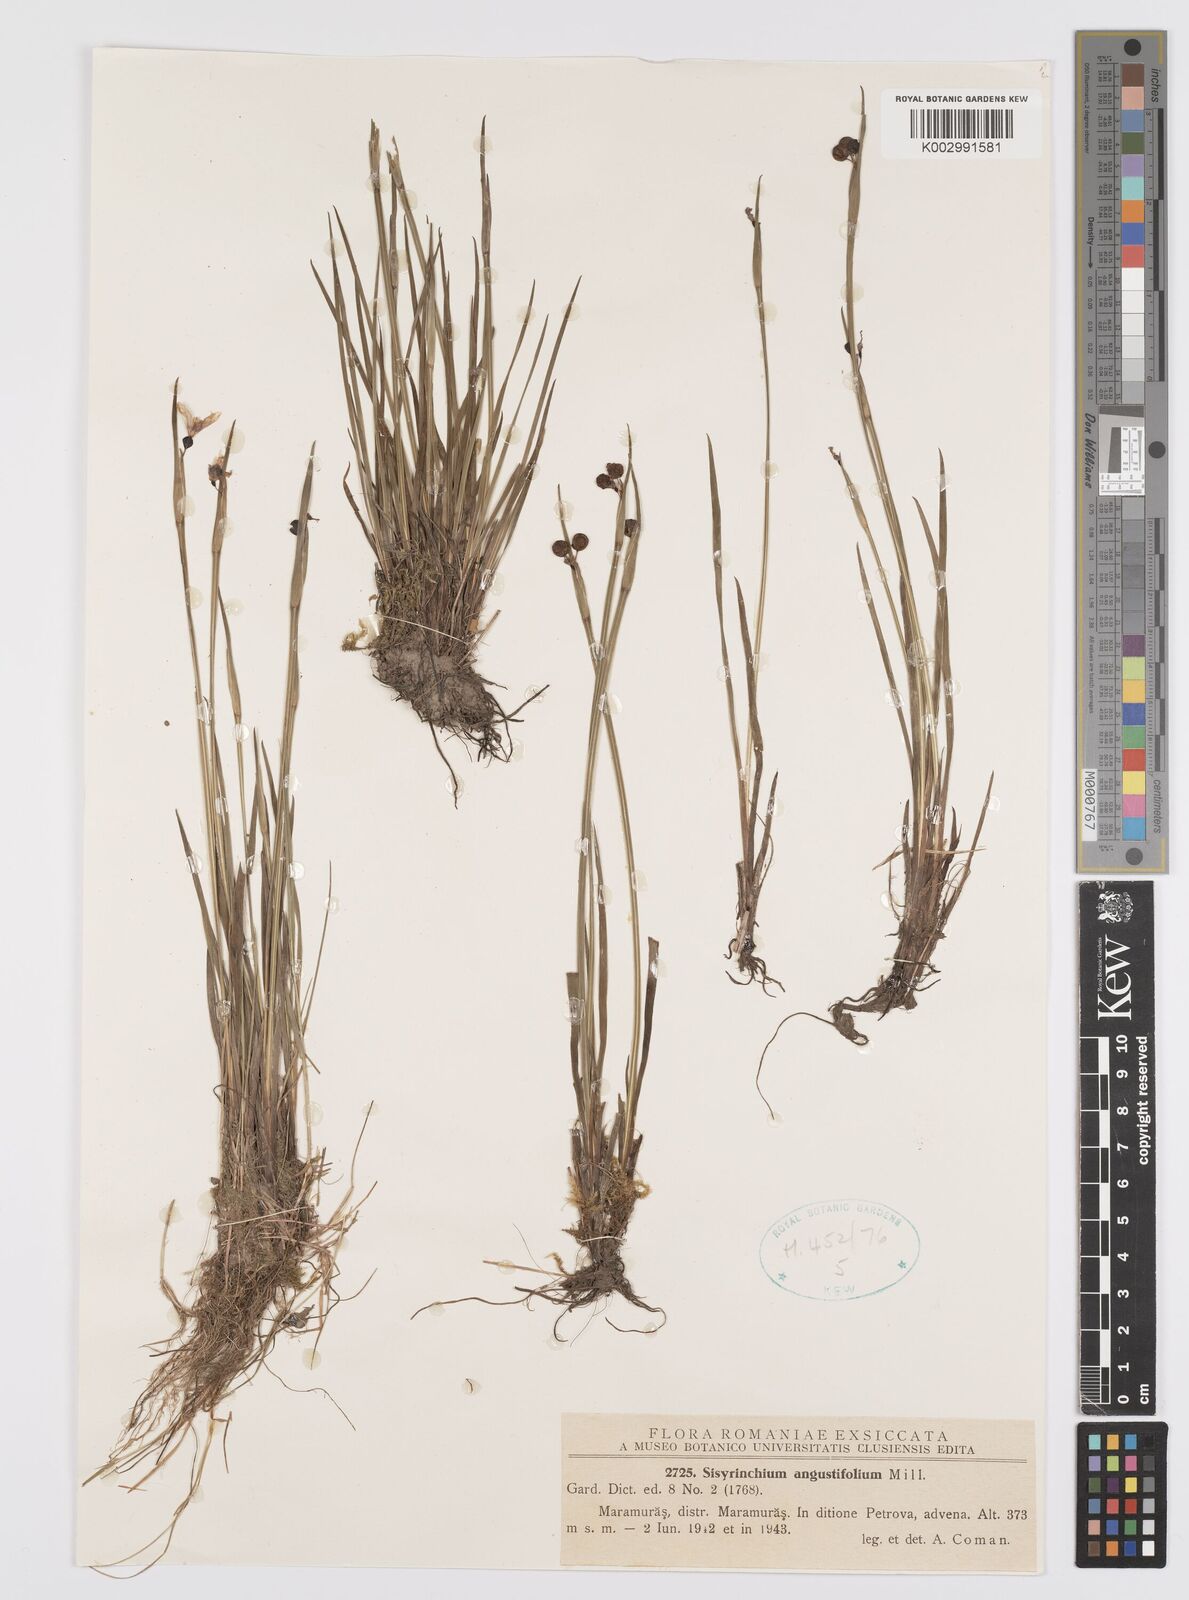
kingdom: Plantae
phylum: Tracheophyta
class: Liliopsida
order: Asparagales
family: Iridaceae
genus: Sisyrinchium
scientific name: Sisyrinchium angustifolium
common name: Narrow-leaf blue-eyed-grass
